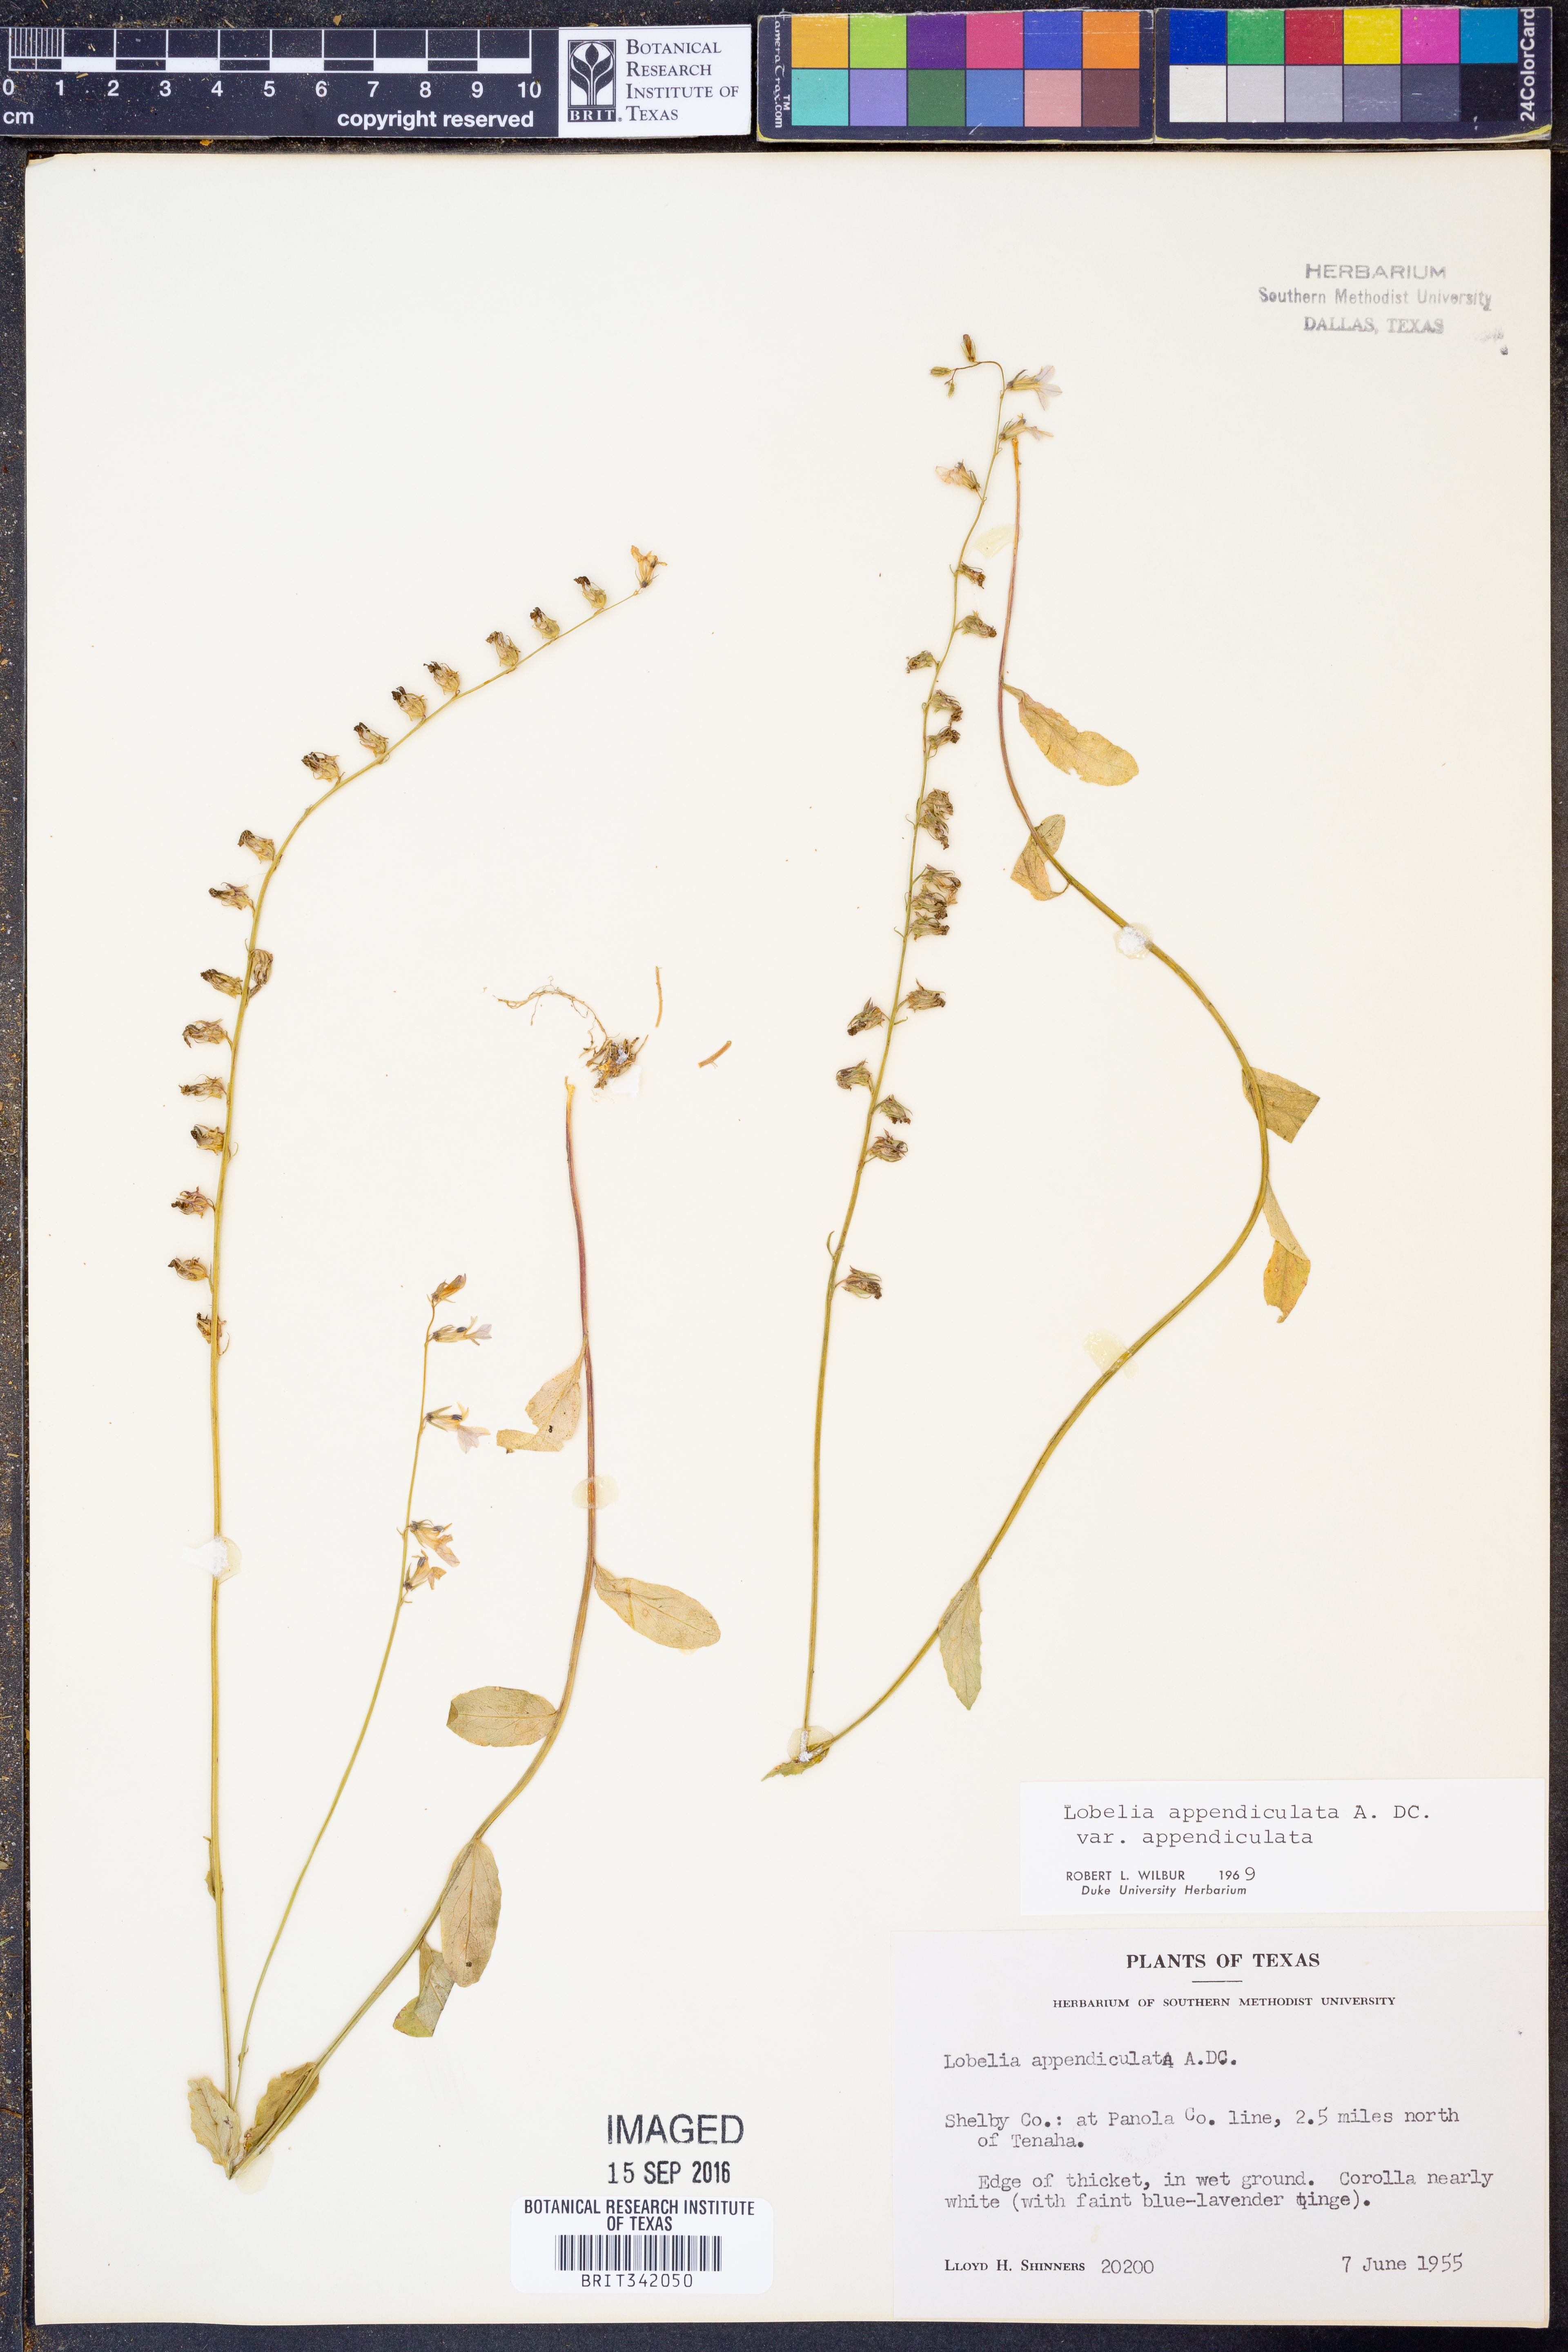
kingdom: Plantae
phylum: Tracheophyta
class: Magnoliopsida
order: Asterales
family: Campanulaceae
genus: Lobelia
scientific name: Lobelia appendiculata
